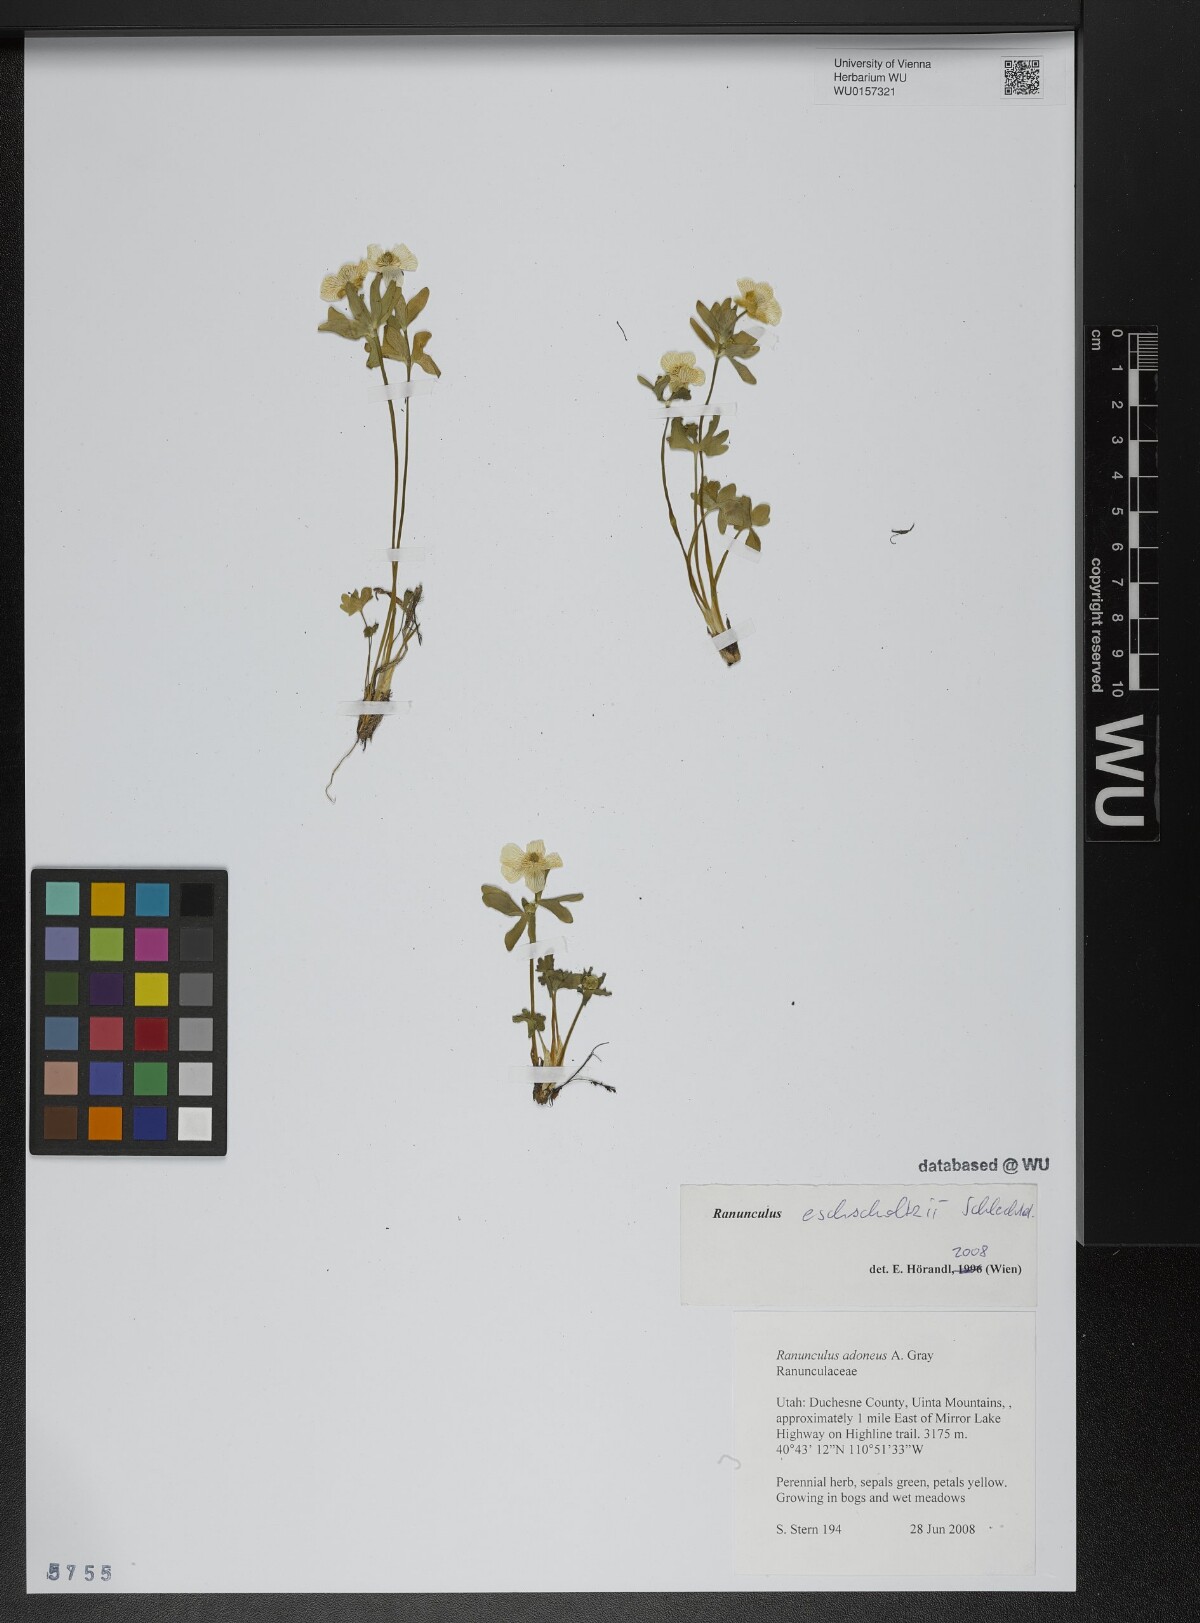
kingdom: Plantae
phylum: Tracheophyta
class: Magnoliopsida
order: Ranunculales
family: Ranunculaceae
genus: Ranunculus
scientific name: Ranunculus eschscholtzii
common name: Eschscholtz's buttercup
